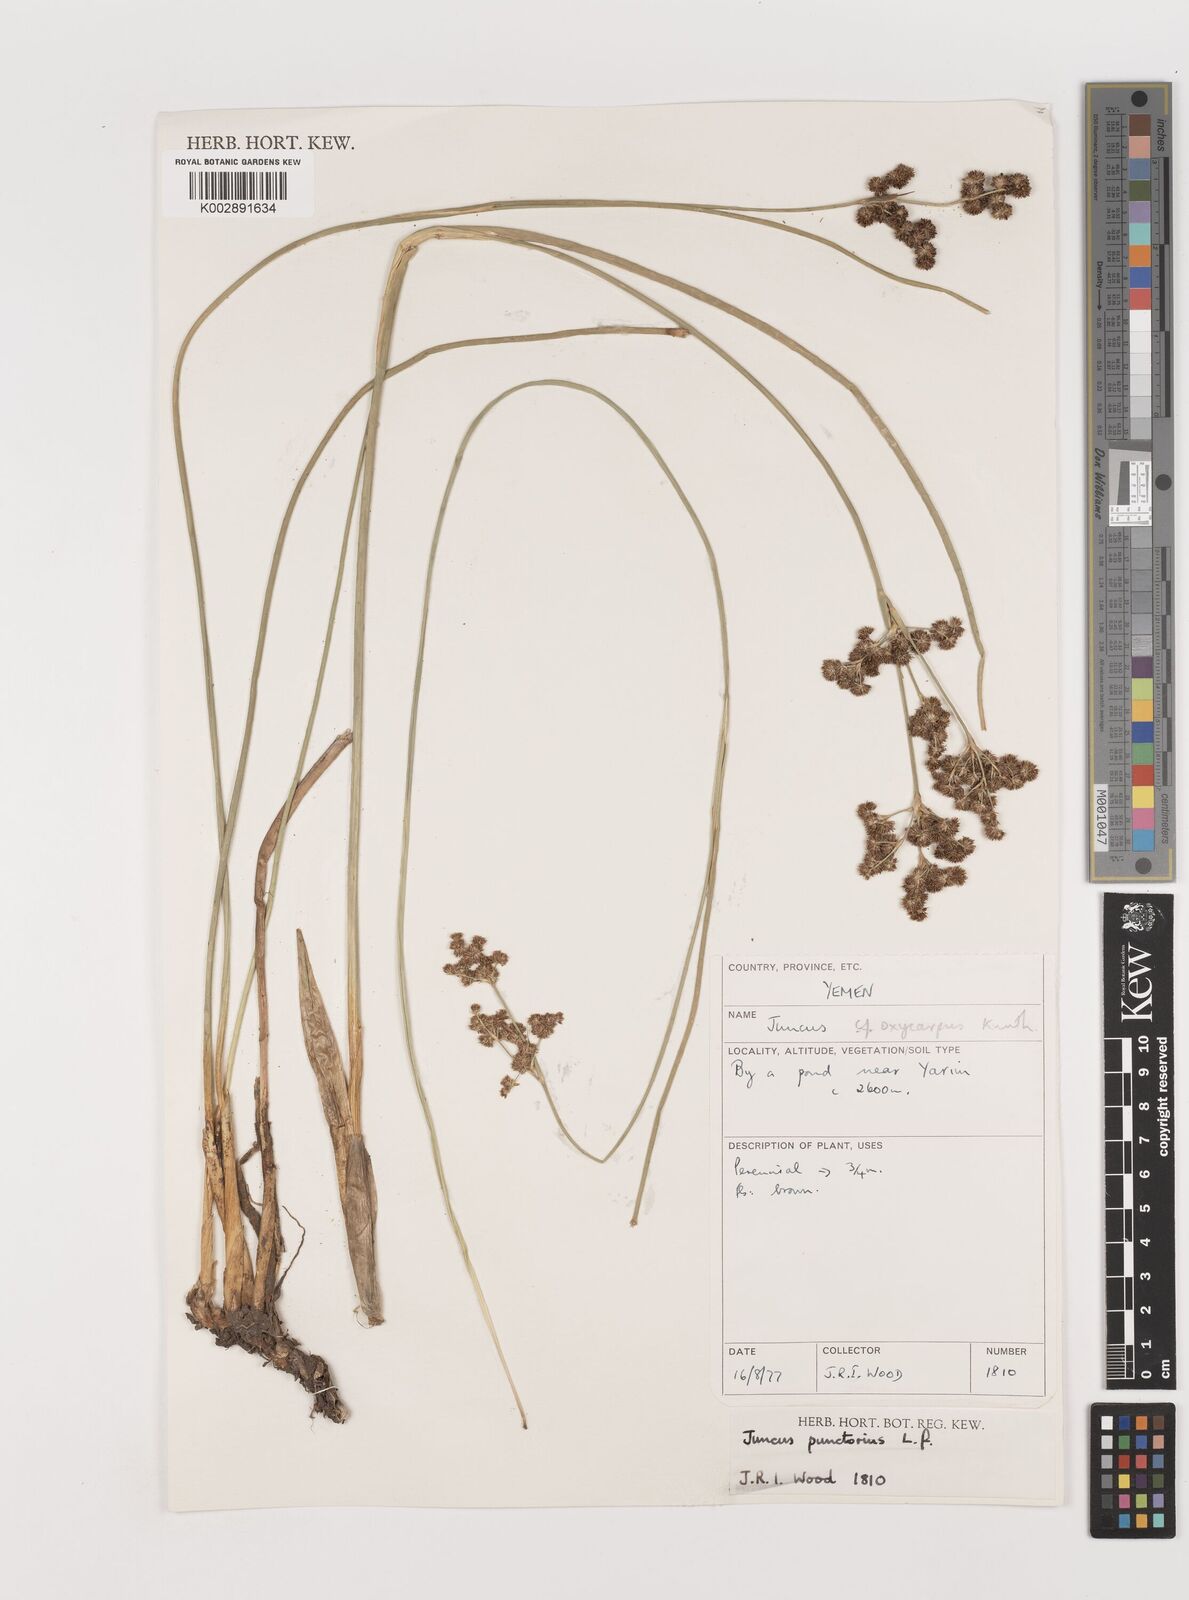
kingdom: Plantae
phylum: Tracheophyta
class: Liliopsida
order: Poales
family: Juncaceae
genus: Juncus
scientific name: Juncus punctorius
